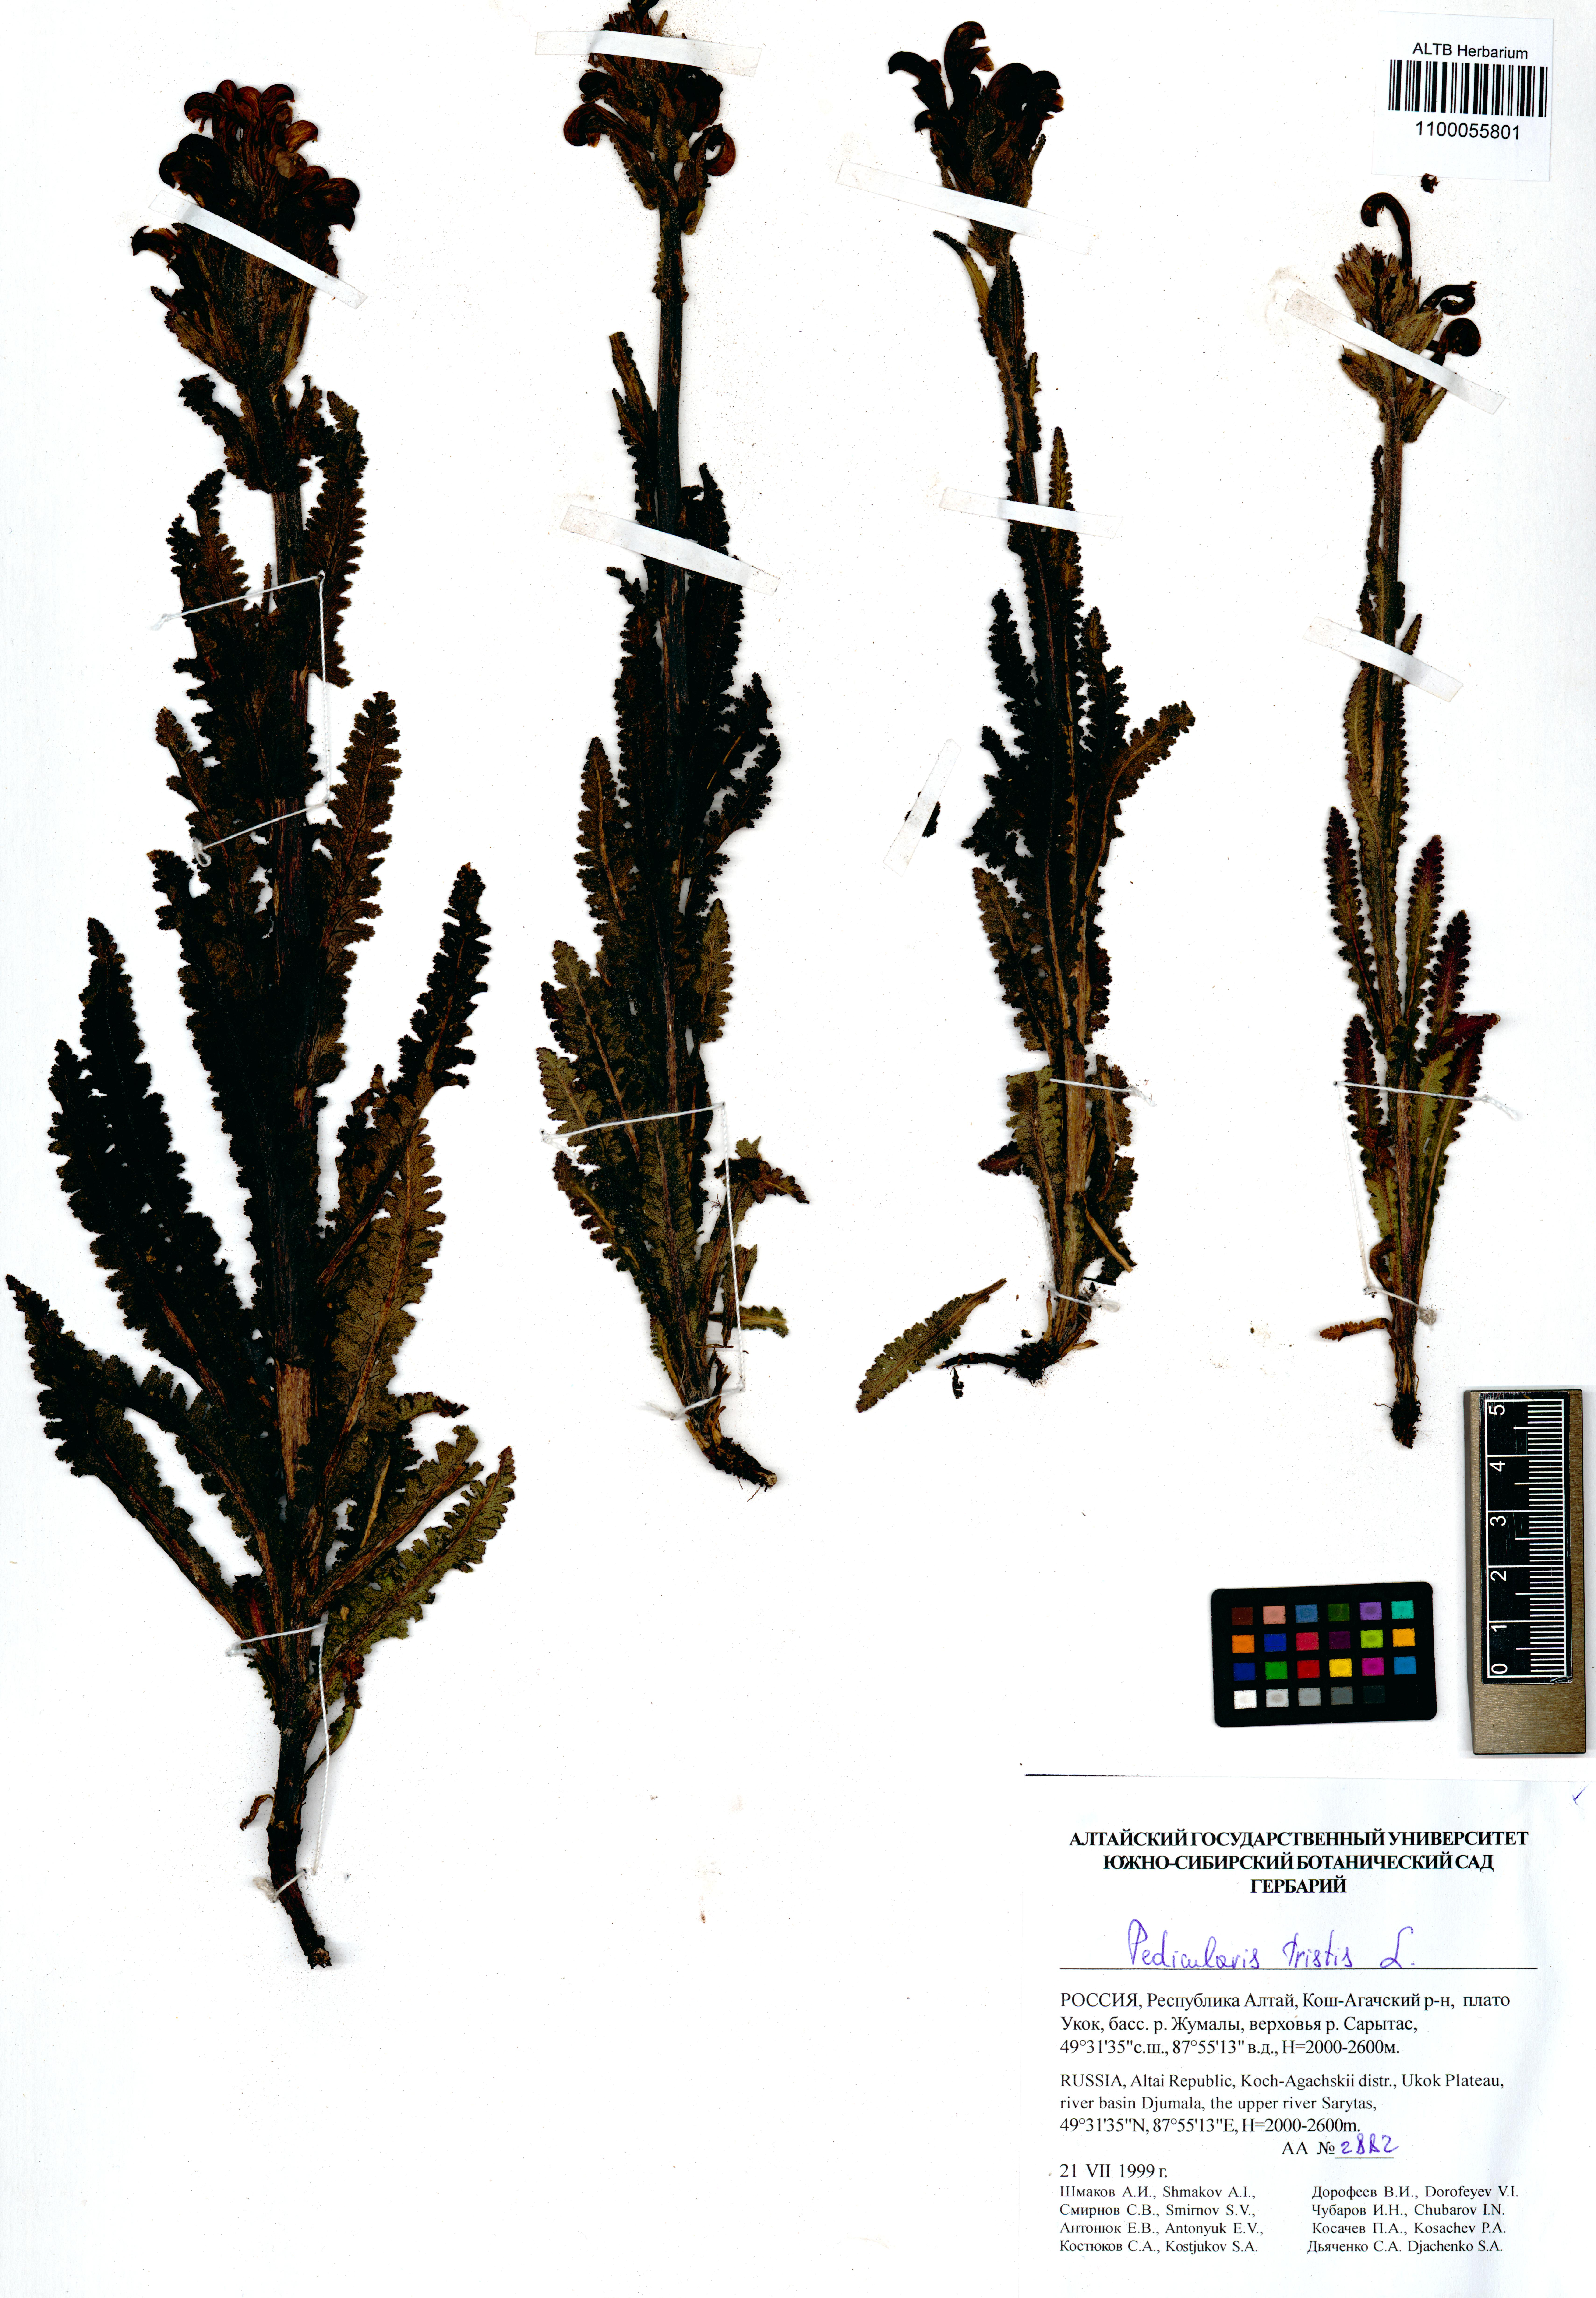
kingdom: Plantae
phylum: Tracheophyta
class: Magnoliopsida
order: Lamiales
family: Orobanchaceae
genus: Pedicularis
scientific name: Pedicularis tristis
